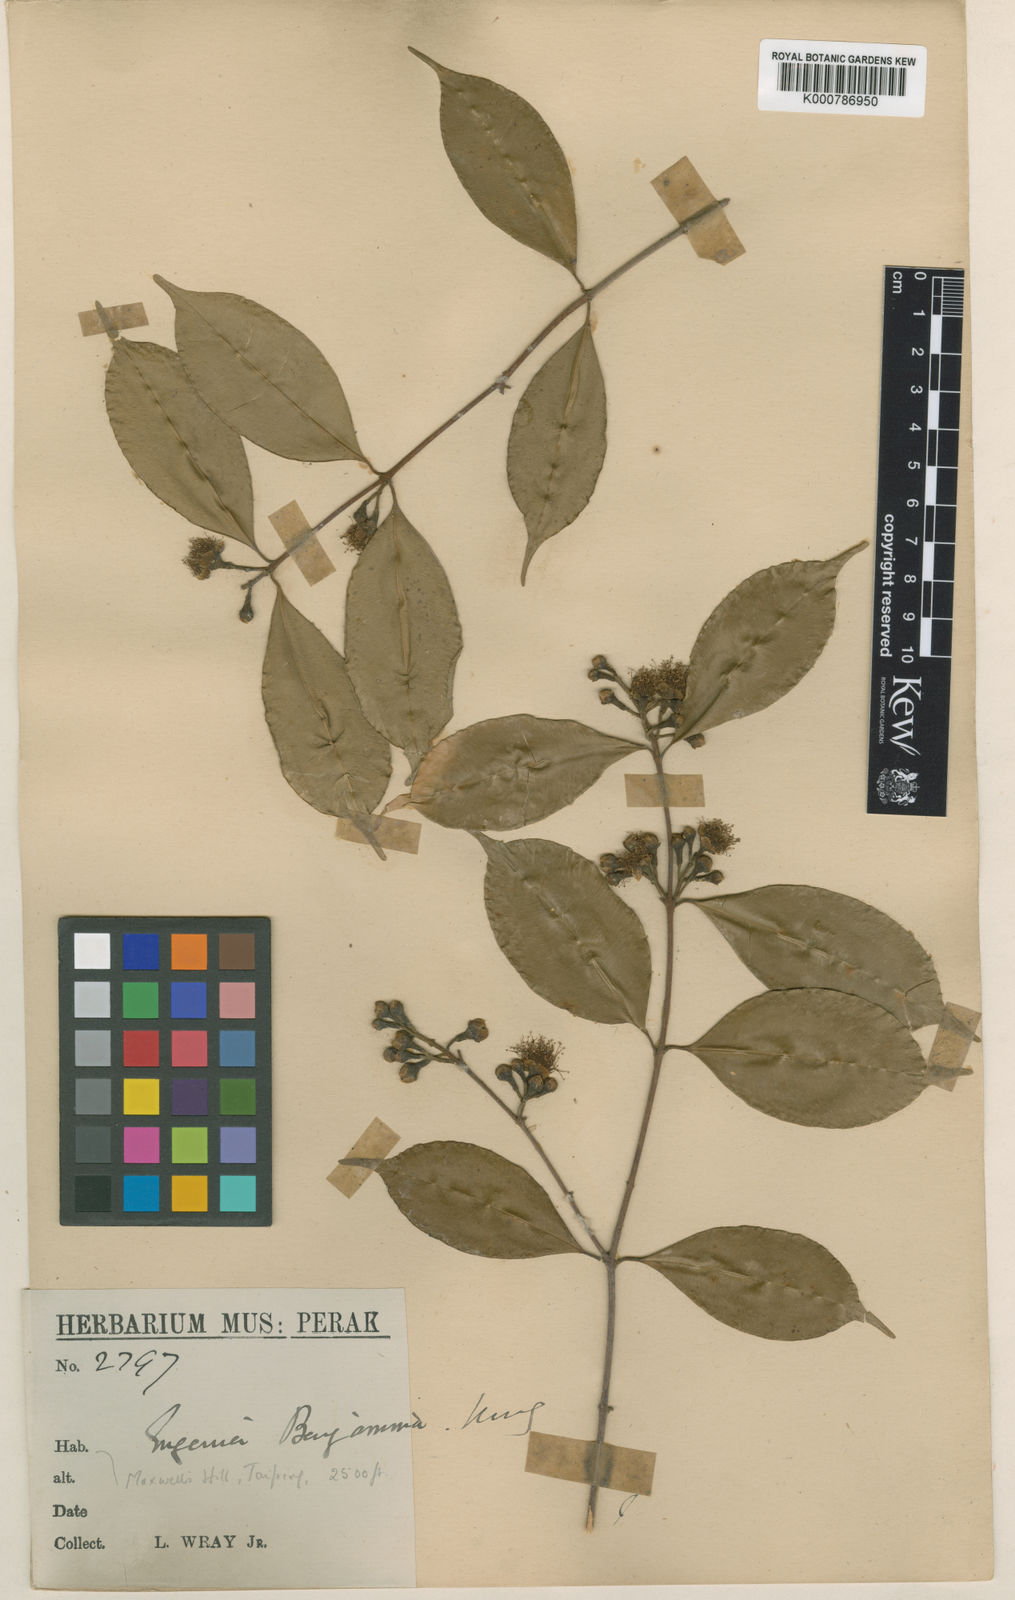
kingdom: Plantae
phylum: Tracheophyta
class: Magnoliopsida
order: Myrtales
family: Myrtaceae
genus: Syzygium
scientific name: Syzygium benjaminum
